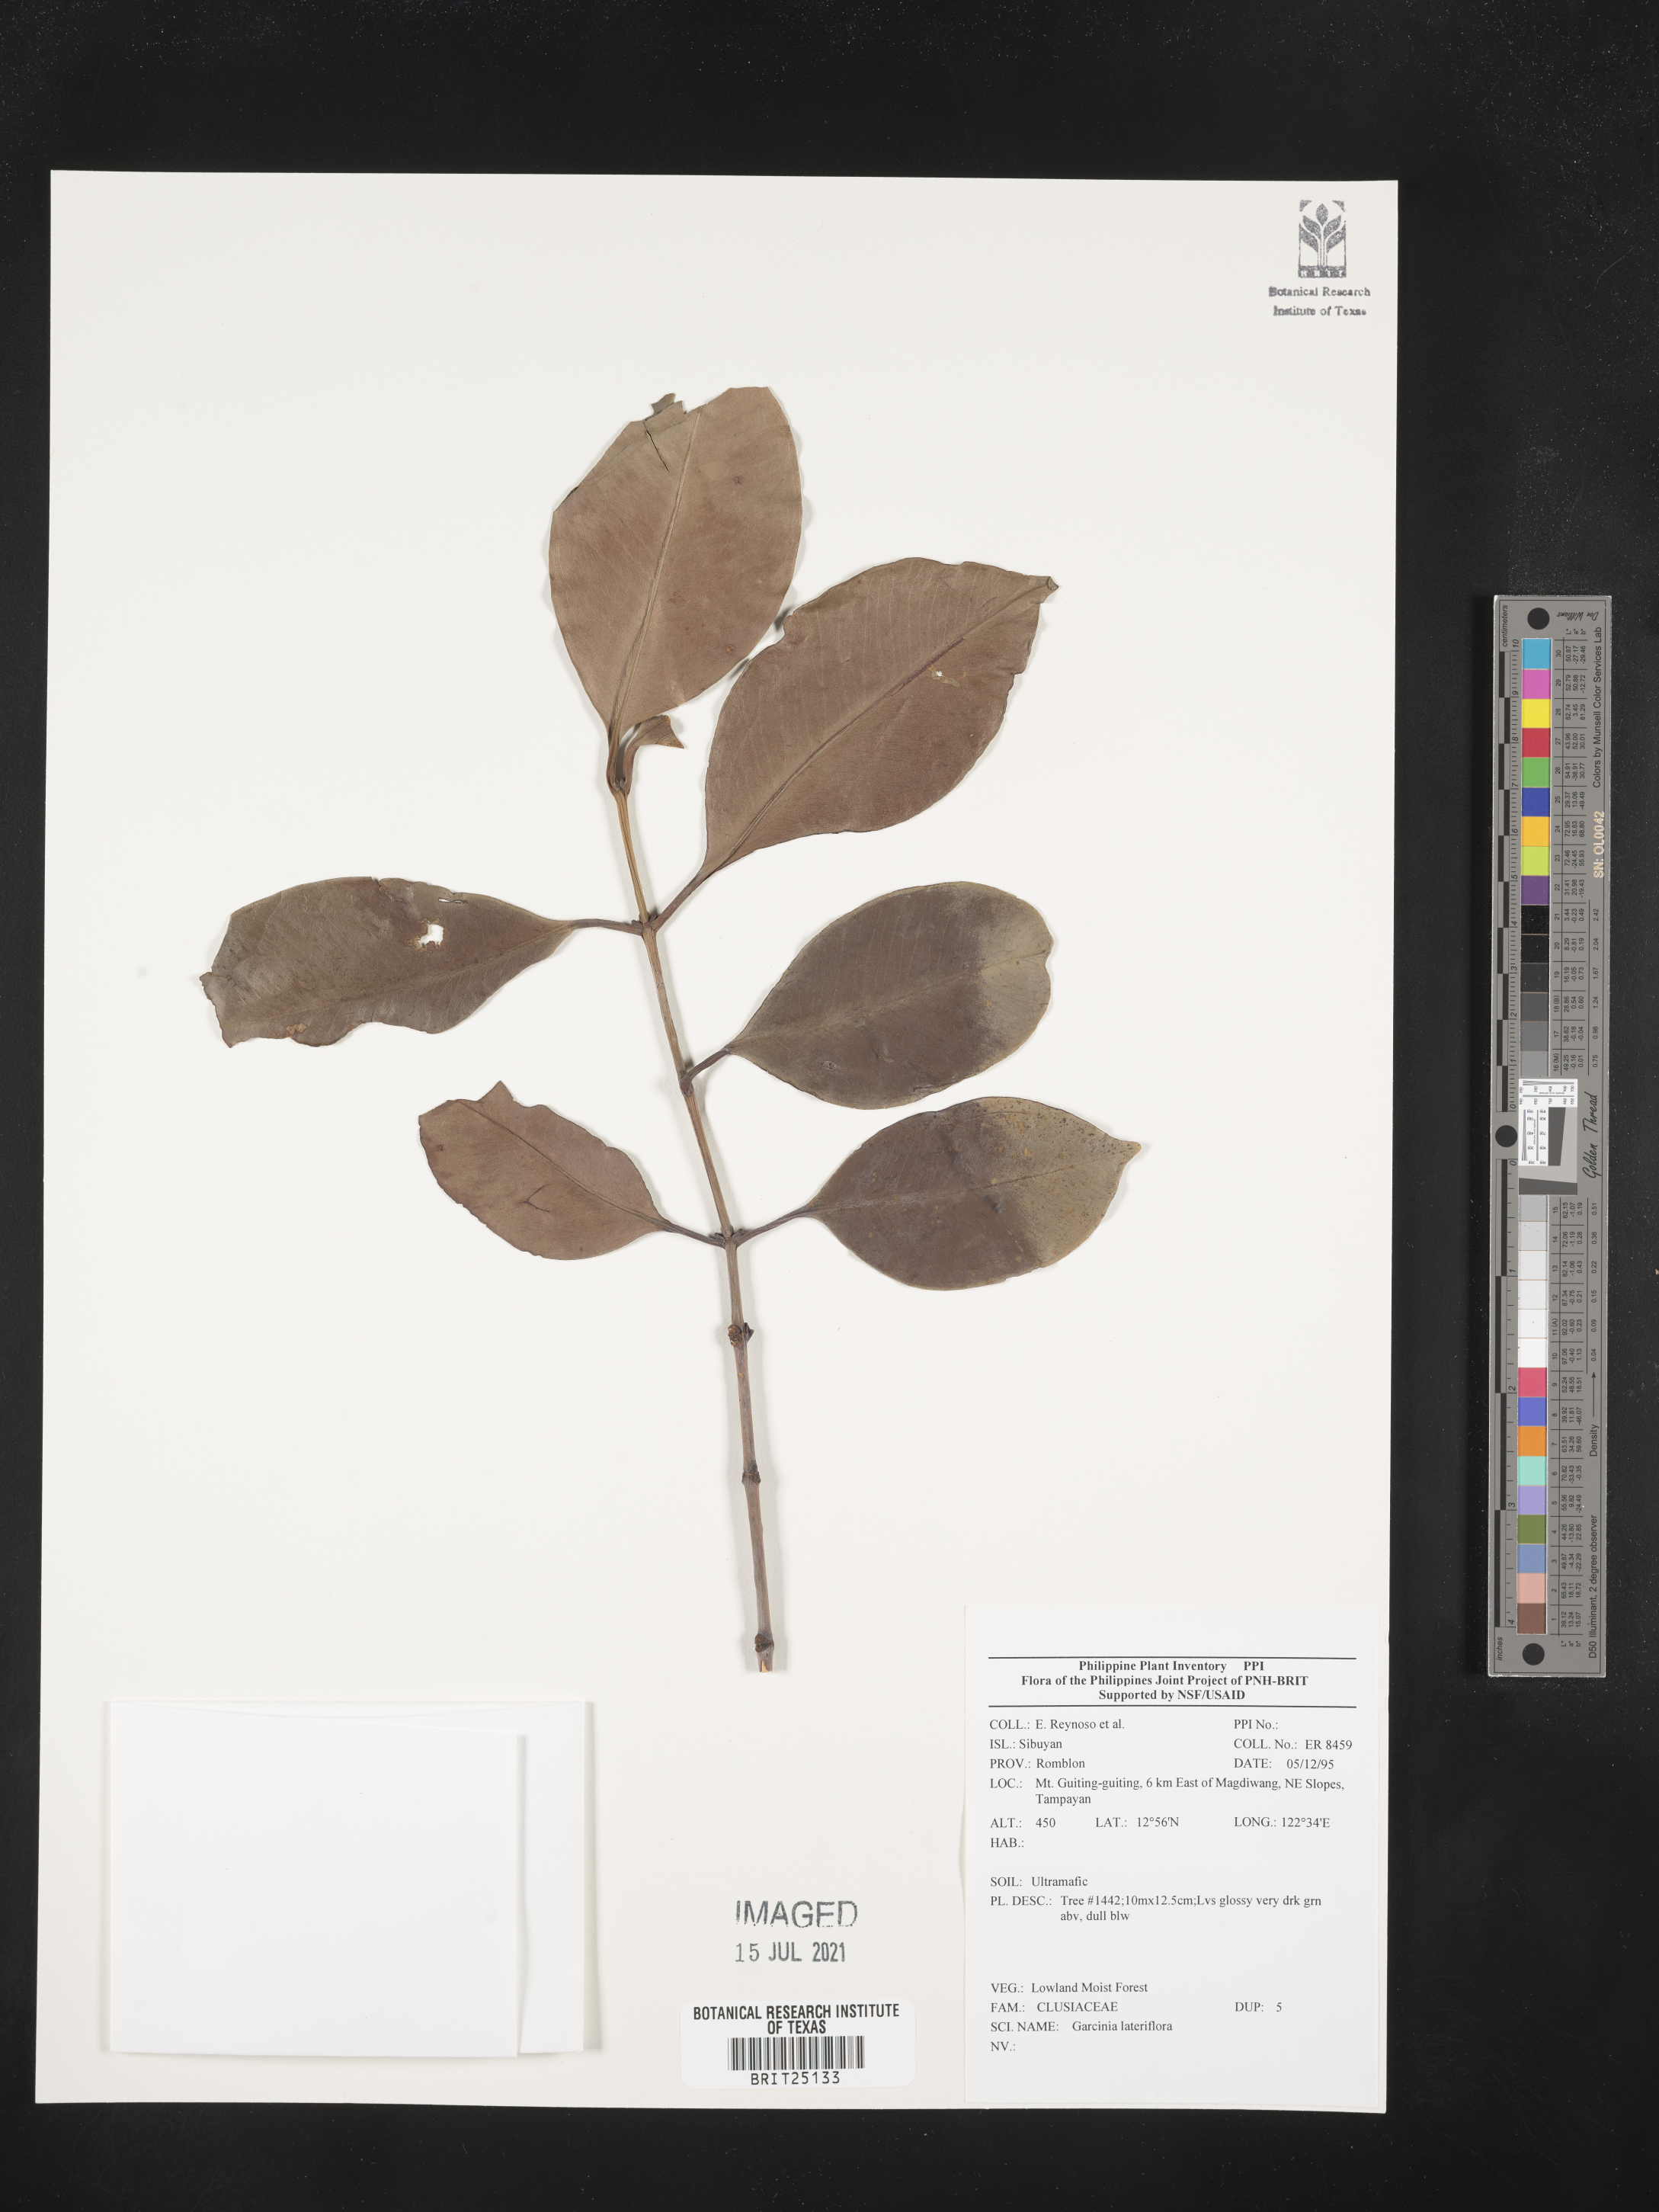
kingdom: Plantae
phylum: Tracheophyta
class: Magnoliopsida
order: Malpighiales
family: Clusiaceae
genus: Garcinia
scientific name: Garcinia lateriflora
